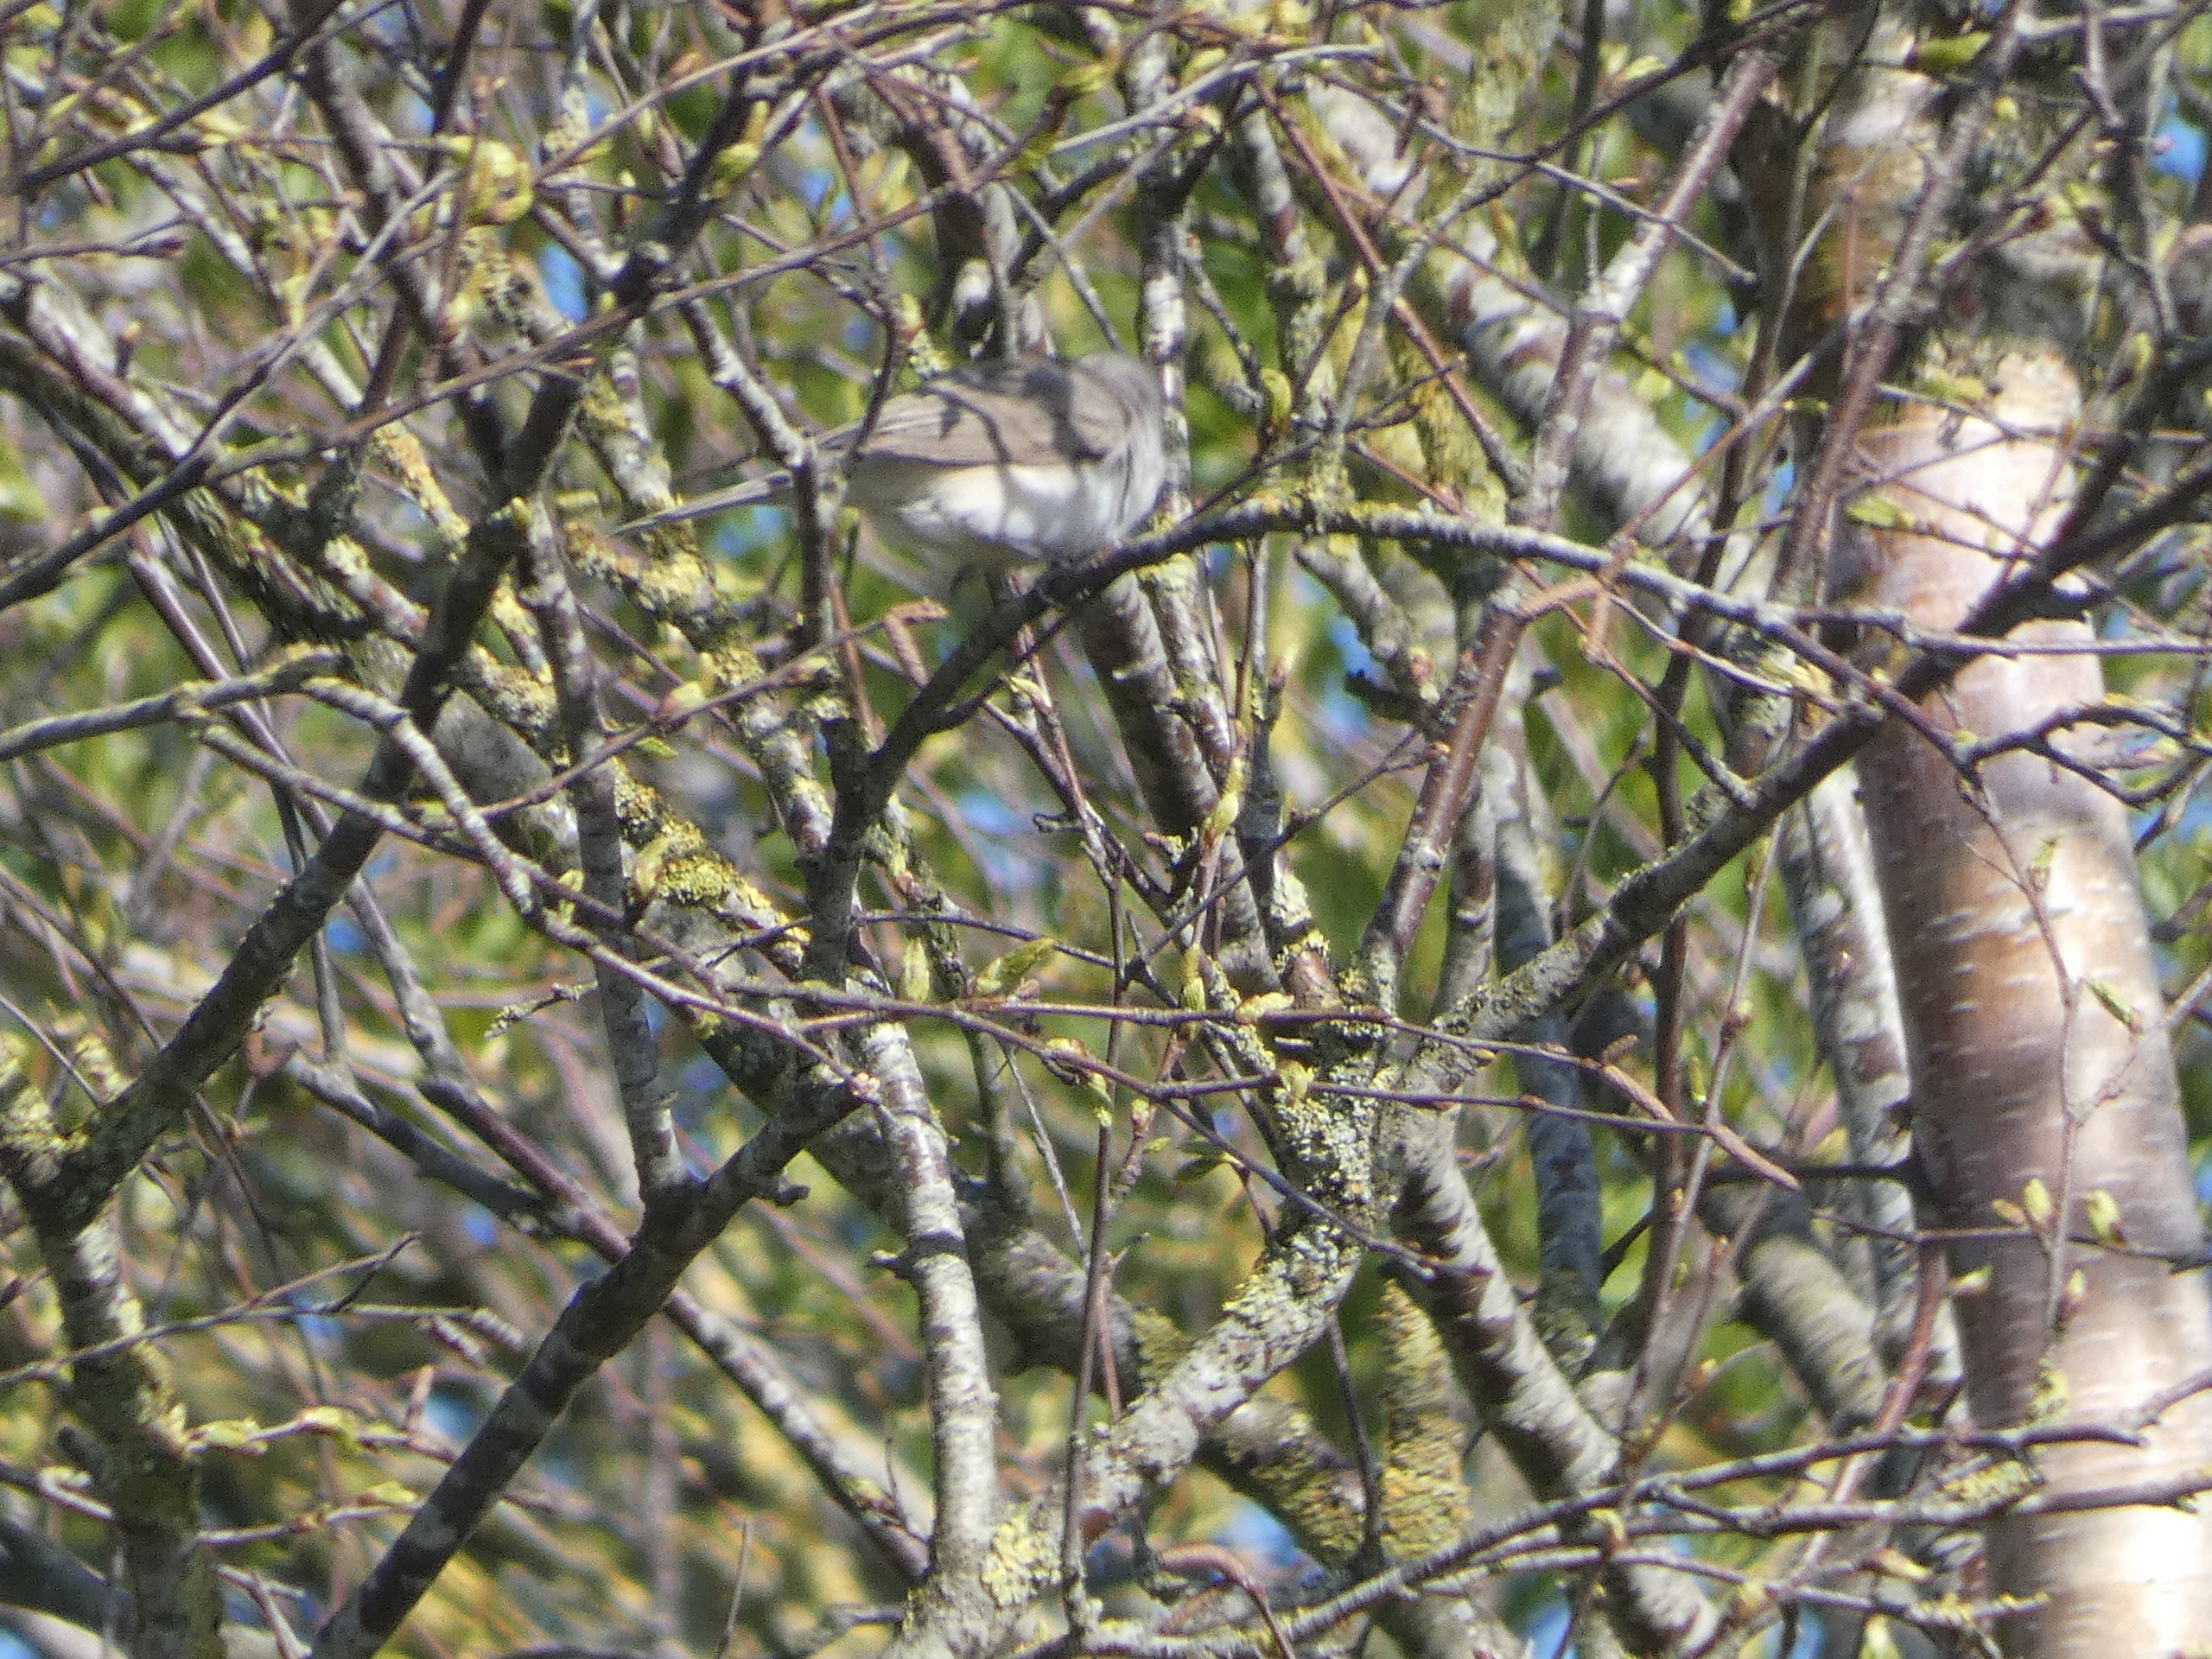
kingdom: Animalia
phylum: Chordata
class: Aves
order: Passeriformes
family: Sylviidae
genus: Sylvia
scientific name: Sylvia curruca
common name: Gærdesanger
